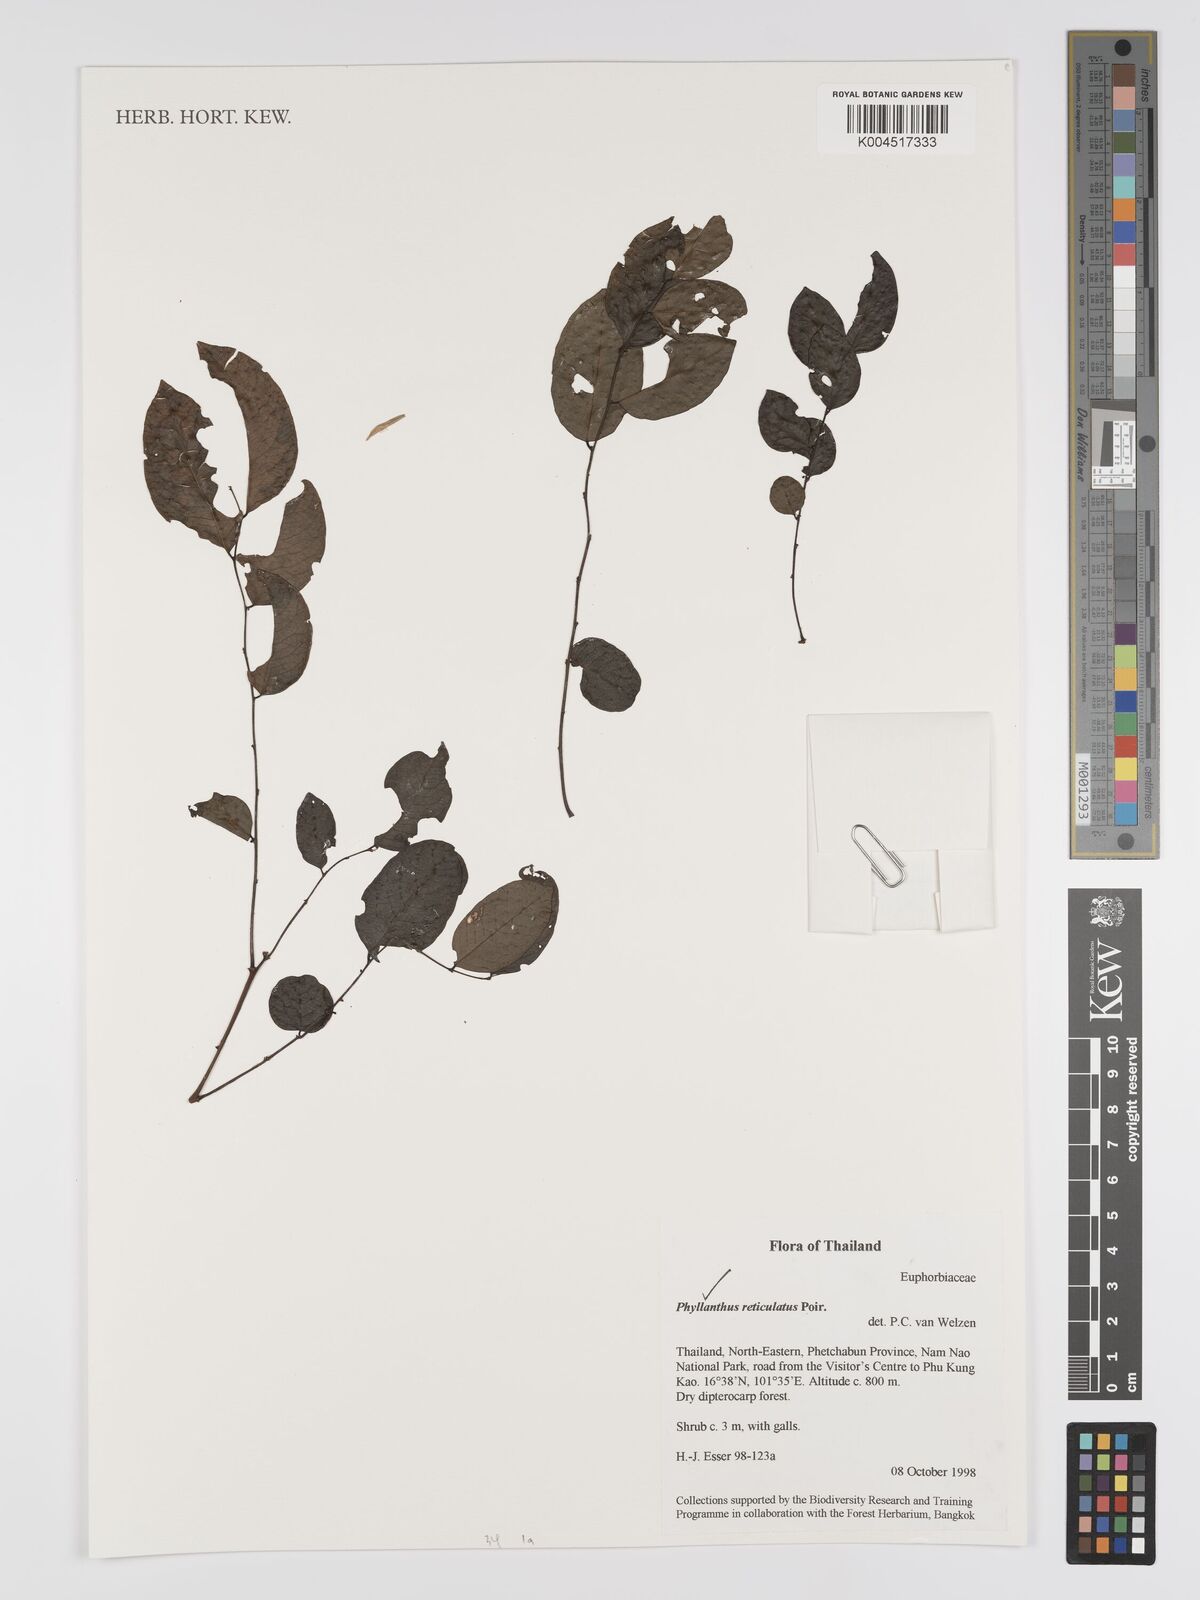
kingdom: Plantae
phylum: Tracheophyta
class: Magnoliopsida
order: Malpighiales
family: Phyllanthaceae
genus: Phyllanthus
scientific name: Phyllanthus reticulatus
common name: Potato bush
